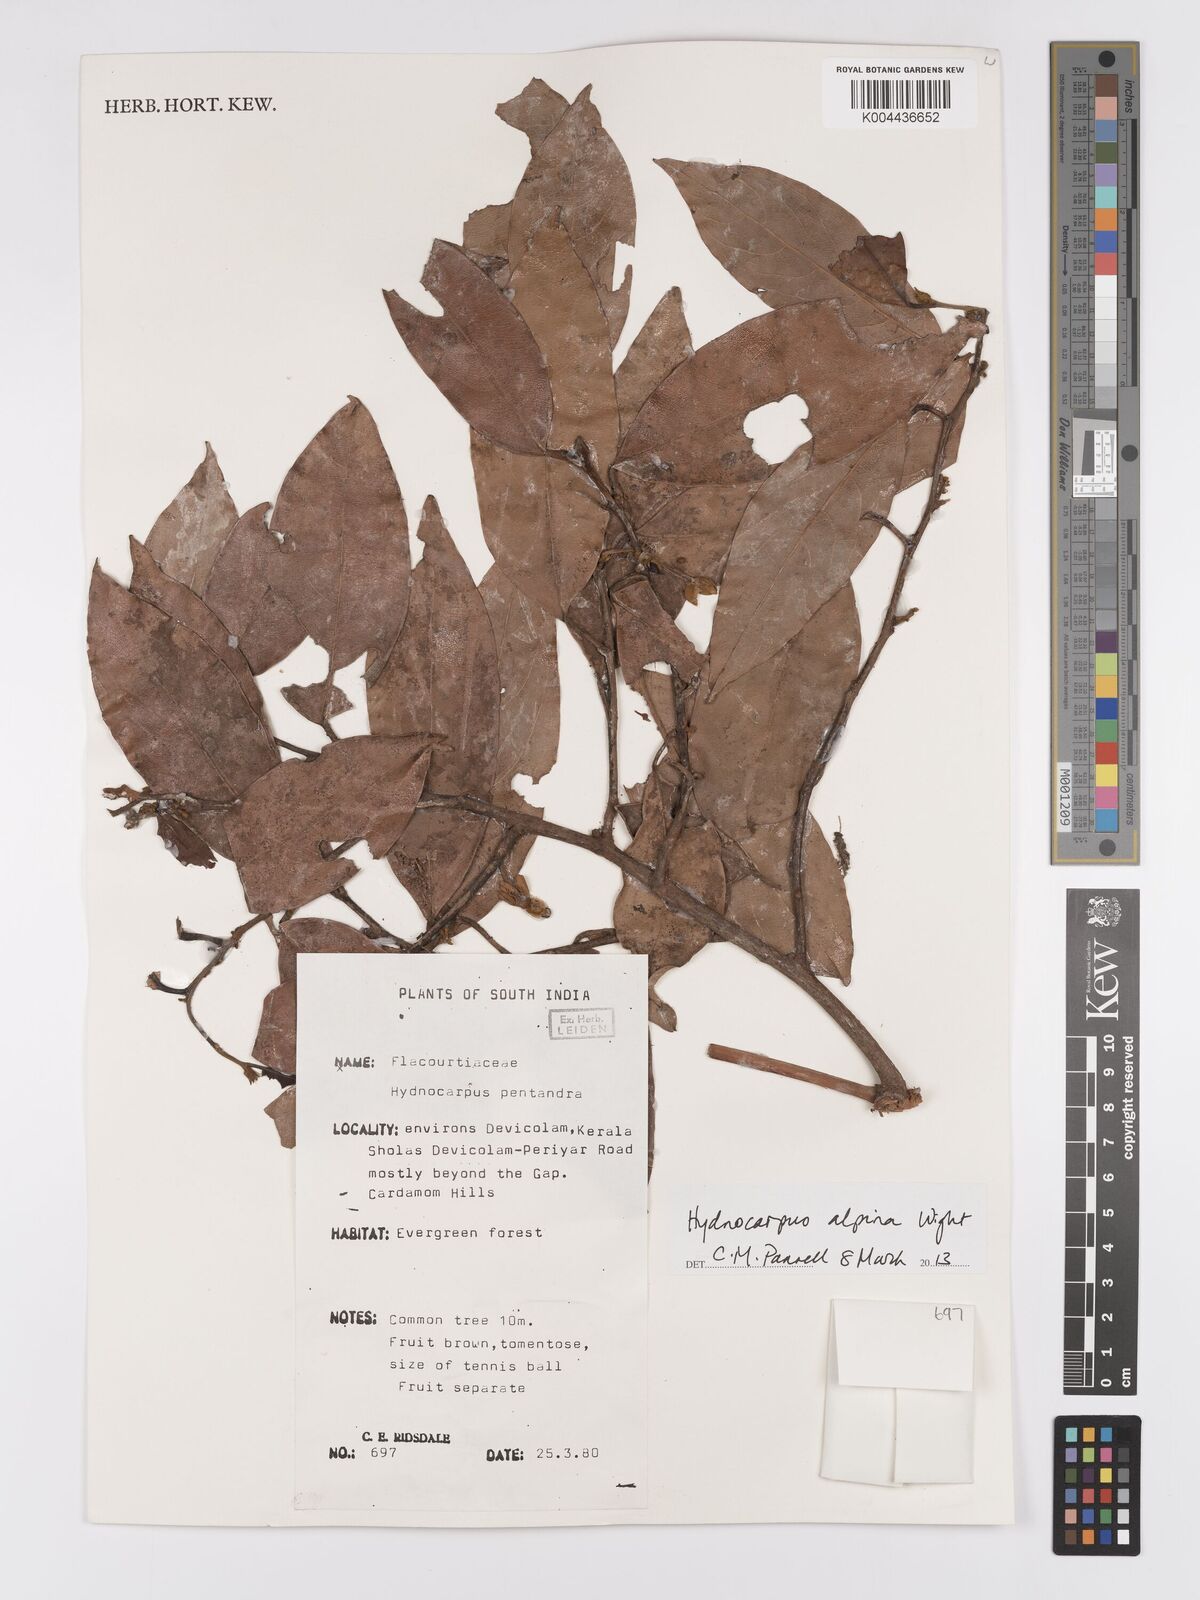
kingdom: Plantae
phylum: Tracheophyta
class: Magnoliopsida
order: Malpighiales
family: Achariaceae
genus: Hydnocarpus
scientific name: Hydnocarpus alpinus
